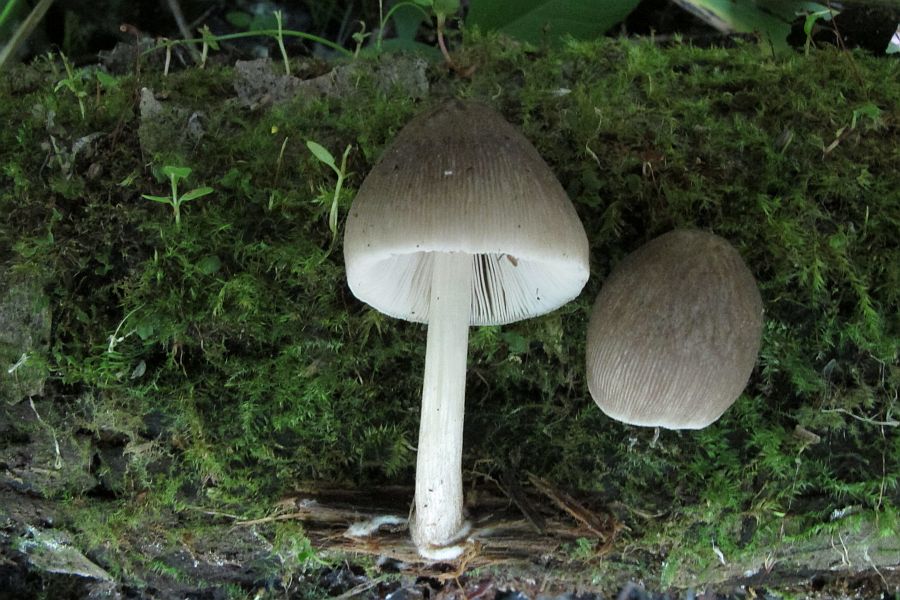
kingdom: Fungi
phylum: Basidiomycota
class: Agaricomycetes
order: Agaricales
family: Pluteaceae
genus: Pluteus
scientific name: Pluteus longistriatus
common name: hjul-skærmhat
